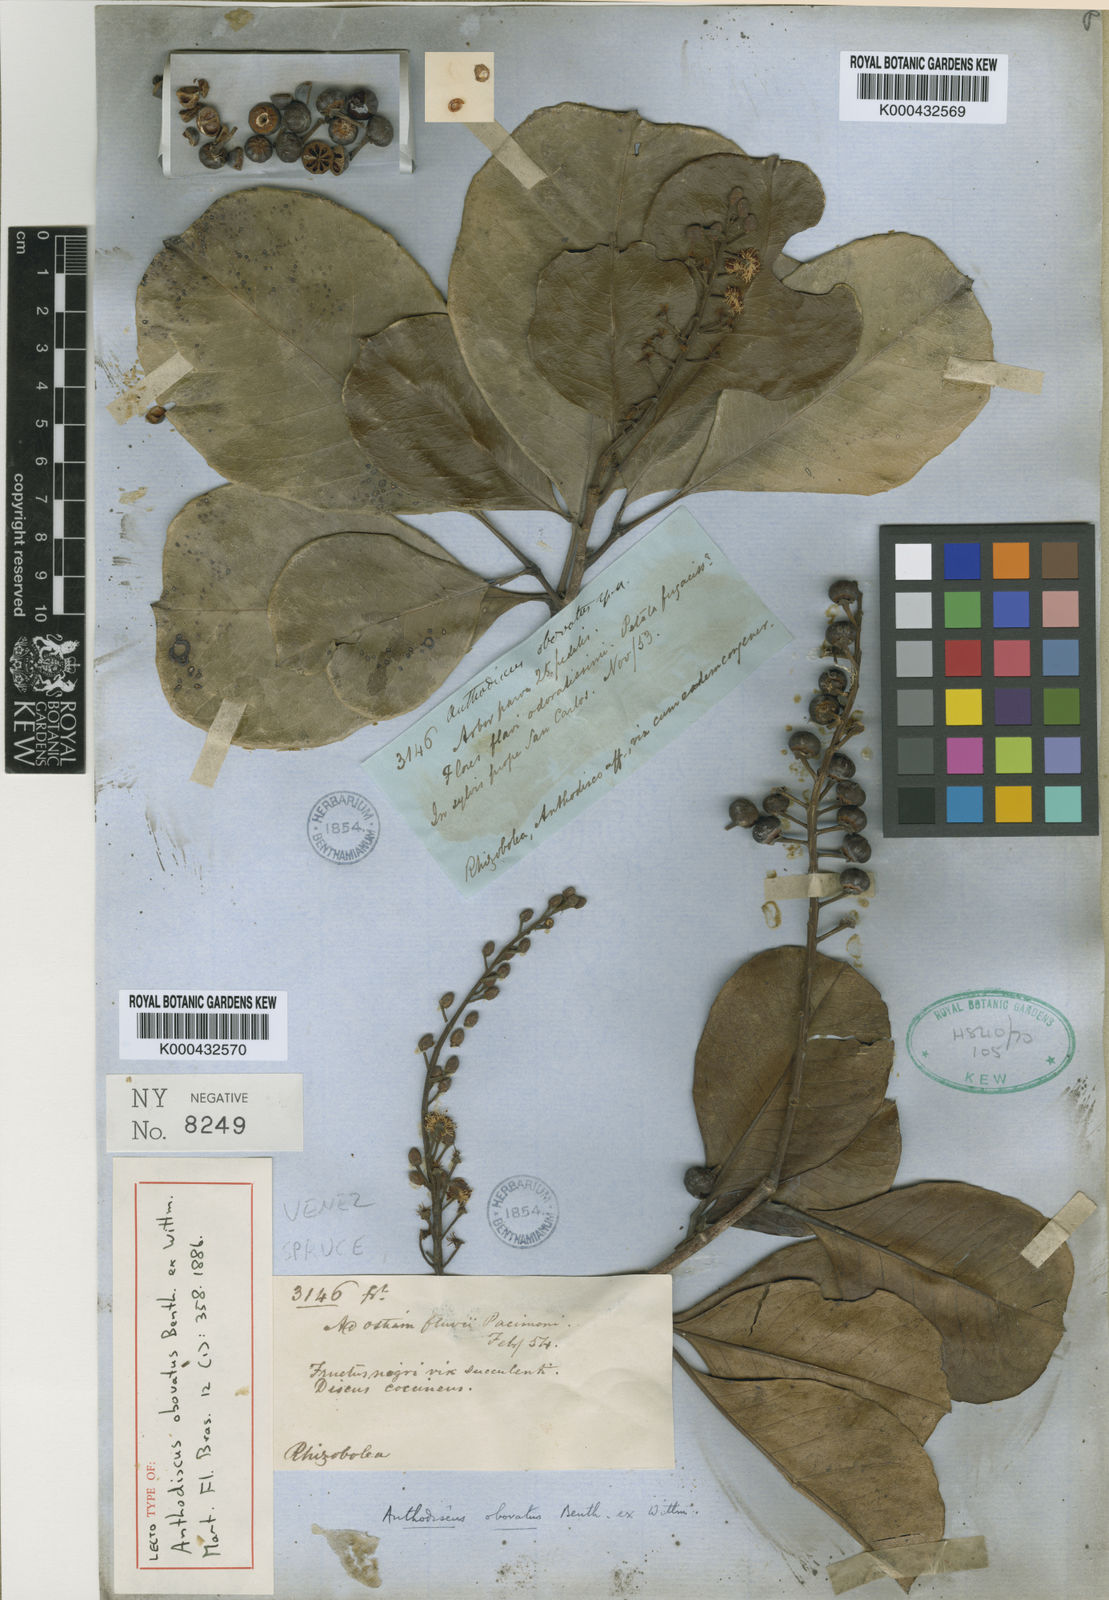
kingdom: Plantae
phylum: Tracheophyta
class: Magnoliopsida
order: Malpighiales
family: Caryocaraceae
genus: Anthodiscus
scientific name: Anthodiscus obovatus
